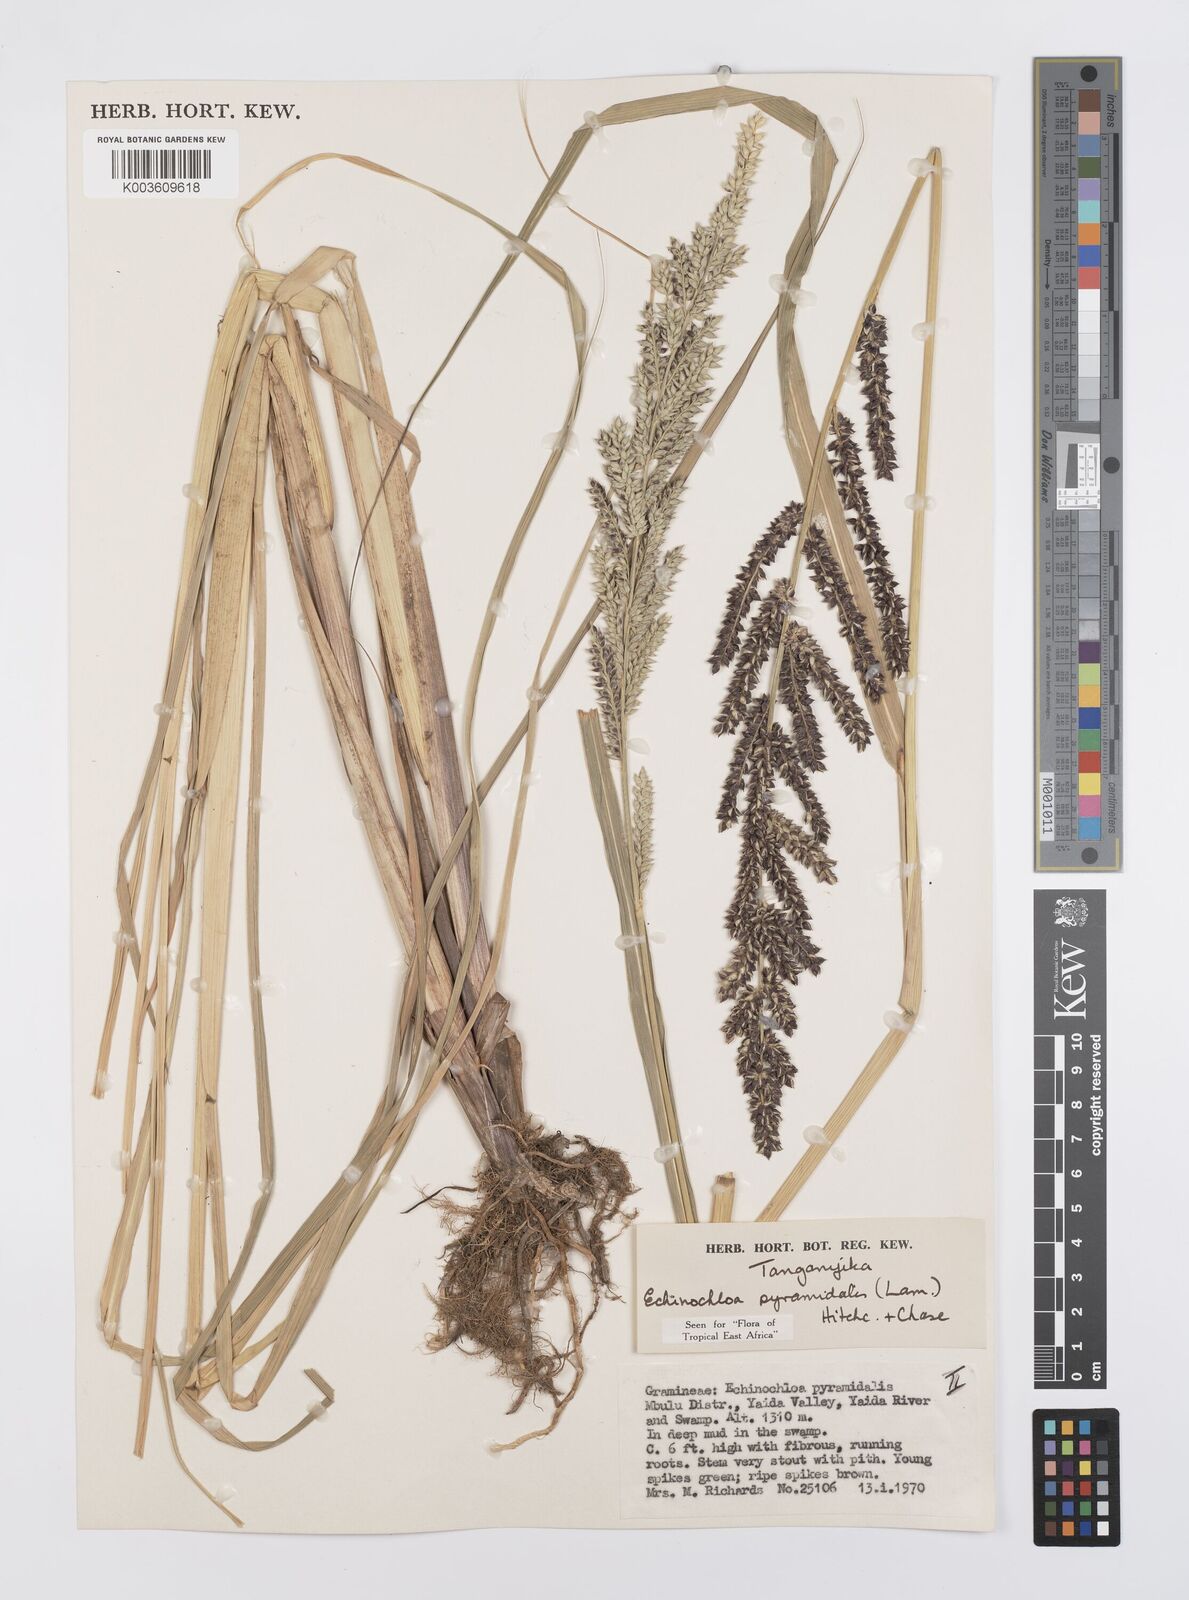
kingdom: Plantae
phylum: Tracheophyta
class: Liliopsida
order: Poales
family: Poaceae
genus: Echinochloa
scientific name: Echinochloa pyramidalis
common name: Antelope grass
